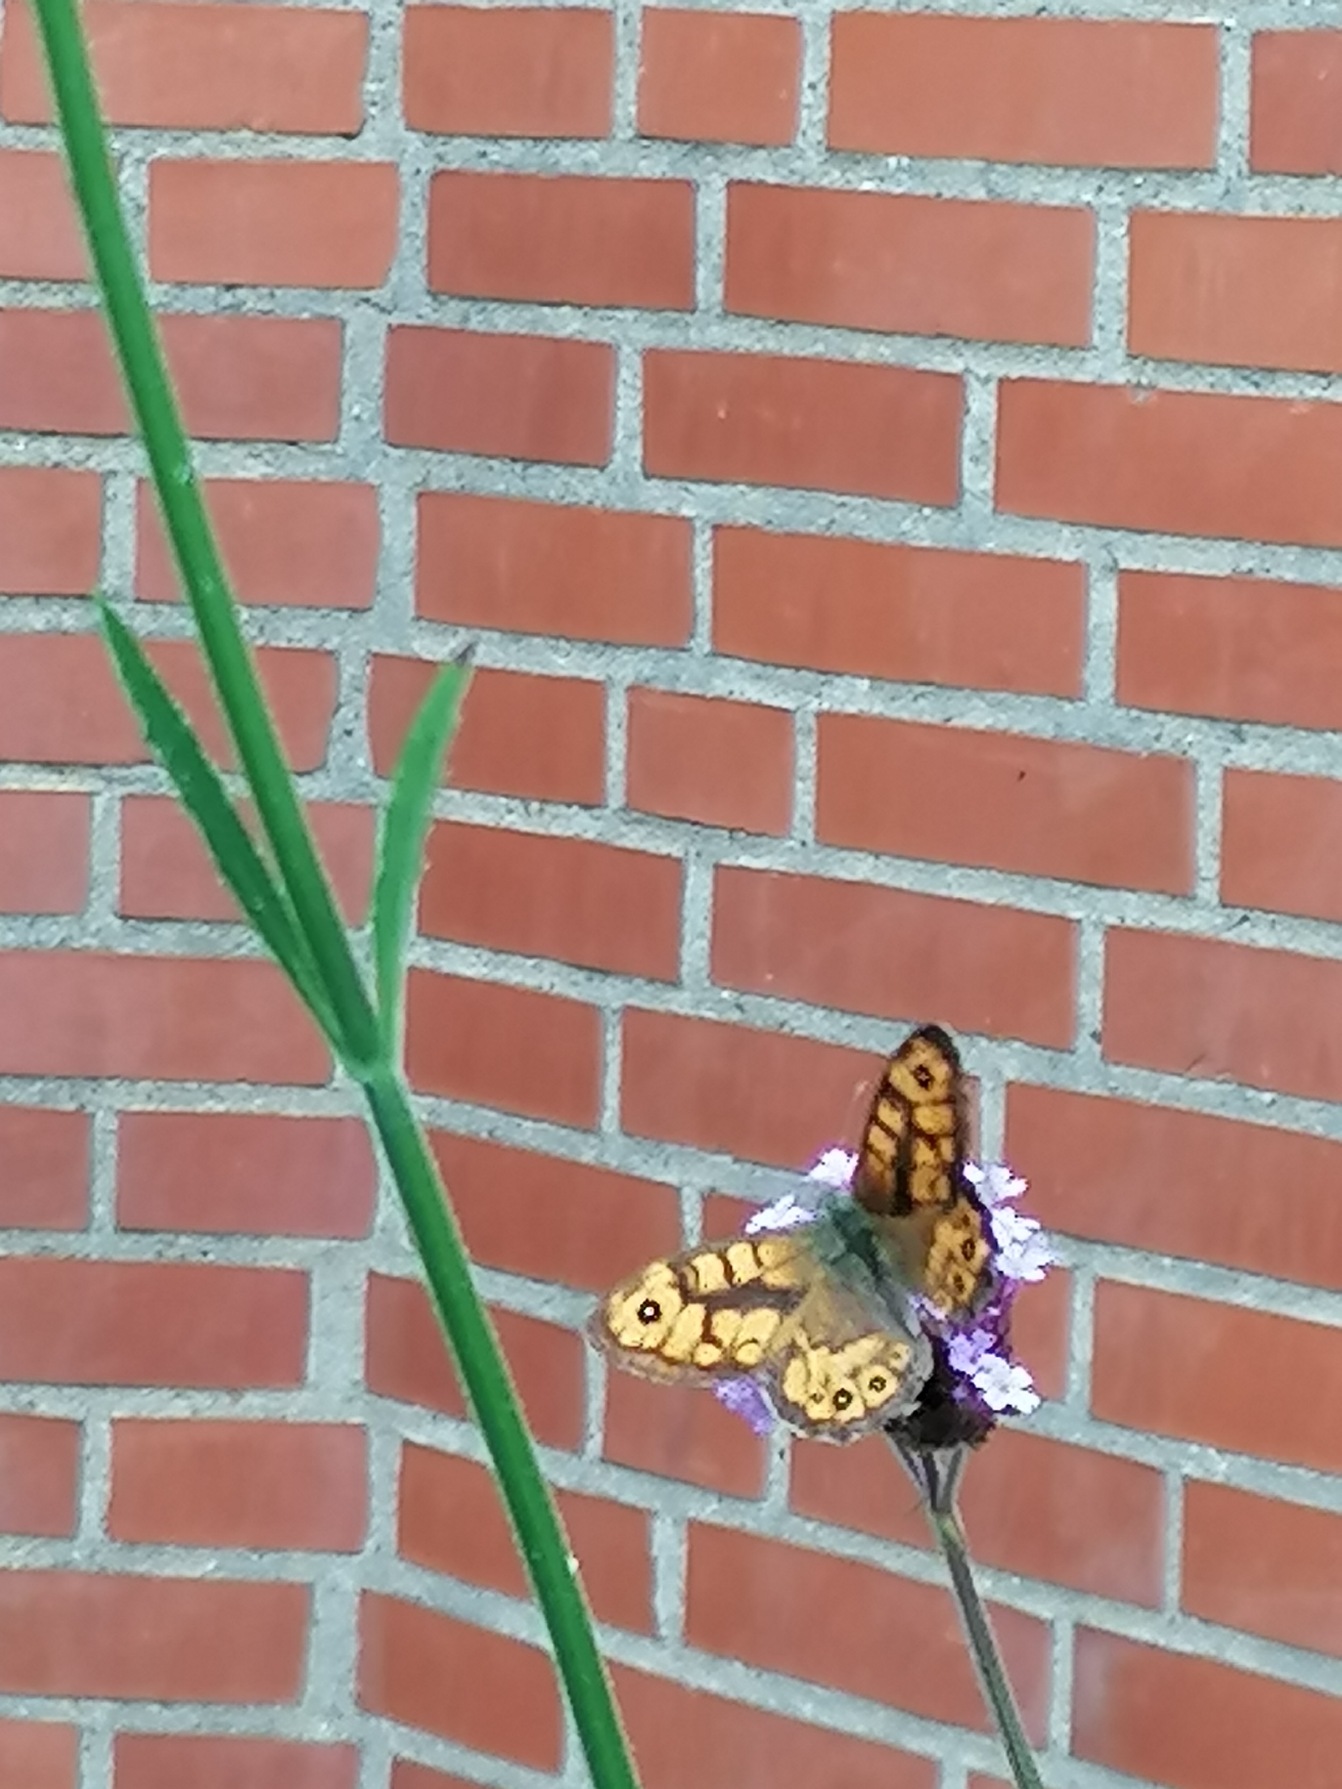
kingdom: Animalia
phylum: Arthropoda
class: Insecta
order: Lepidoptera
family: Nymphalidae
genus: Pararge
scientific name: Pararge Lasiommata megera
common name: Vejrandøje
